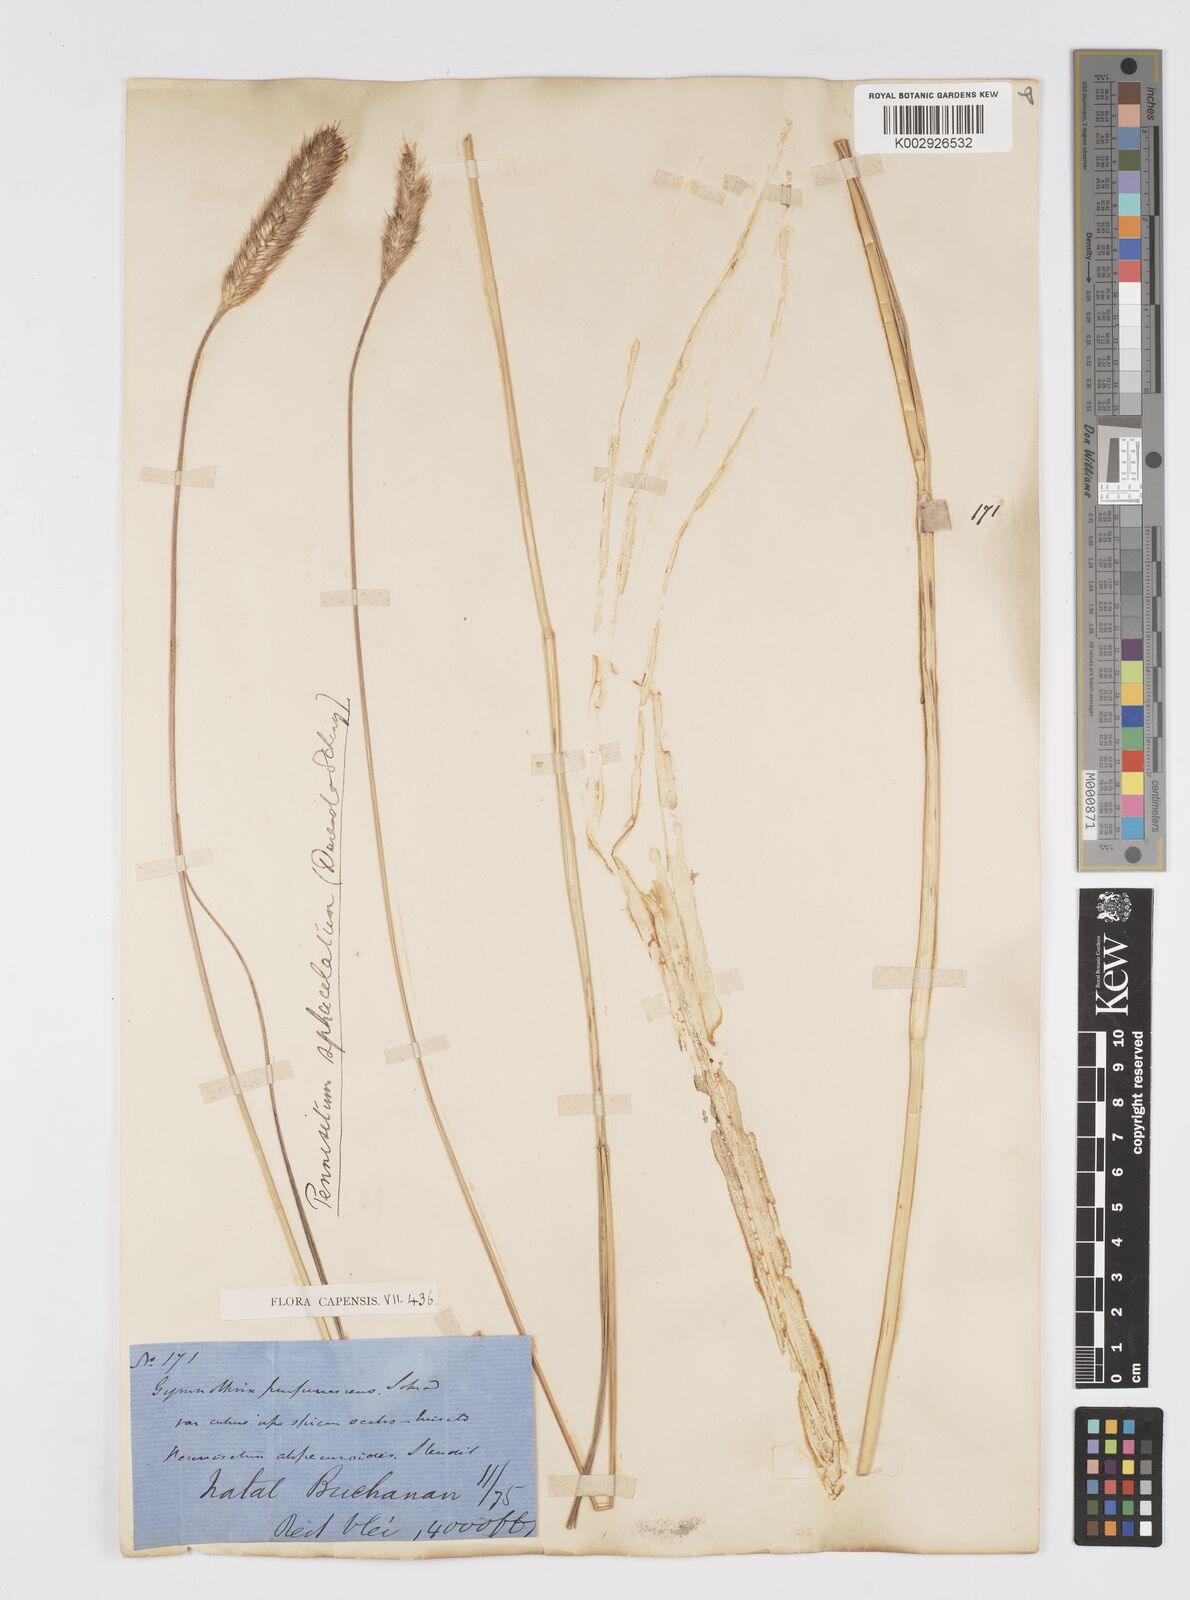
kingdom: Plantae
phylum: Tracheophyta
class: Liliopsida
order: Poales
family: Poaceae
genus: Cenchrus
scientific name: Cenchrus sphacelatus
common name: Bulgras
